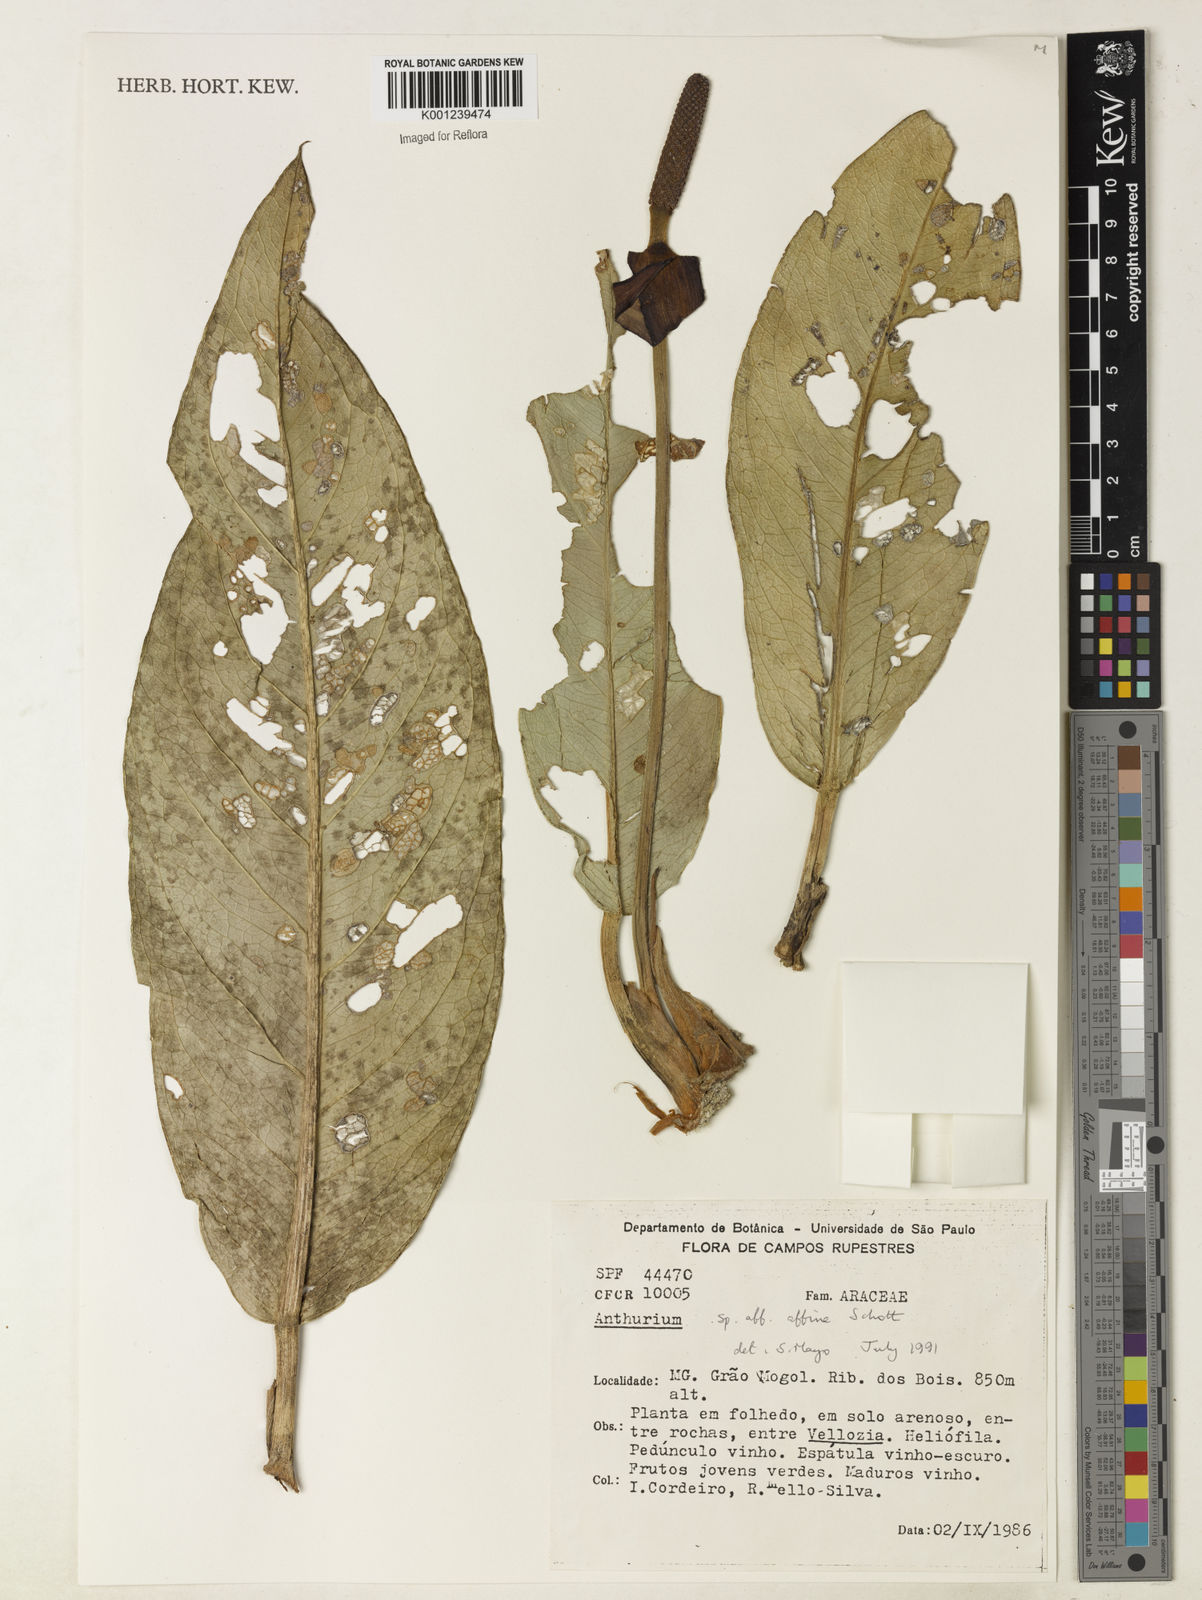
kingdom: Plantae
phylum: Tracheophyta
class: Liliopsida
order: Alismatales
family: Araceae
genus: Anthurium
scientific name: Anthurium affine
